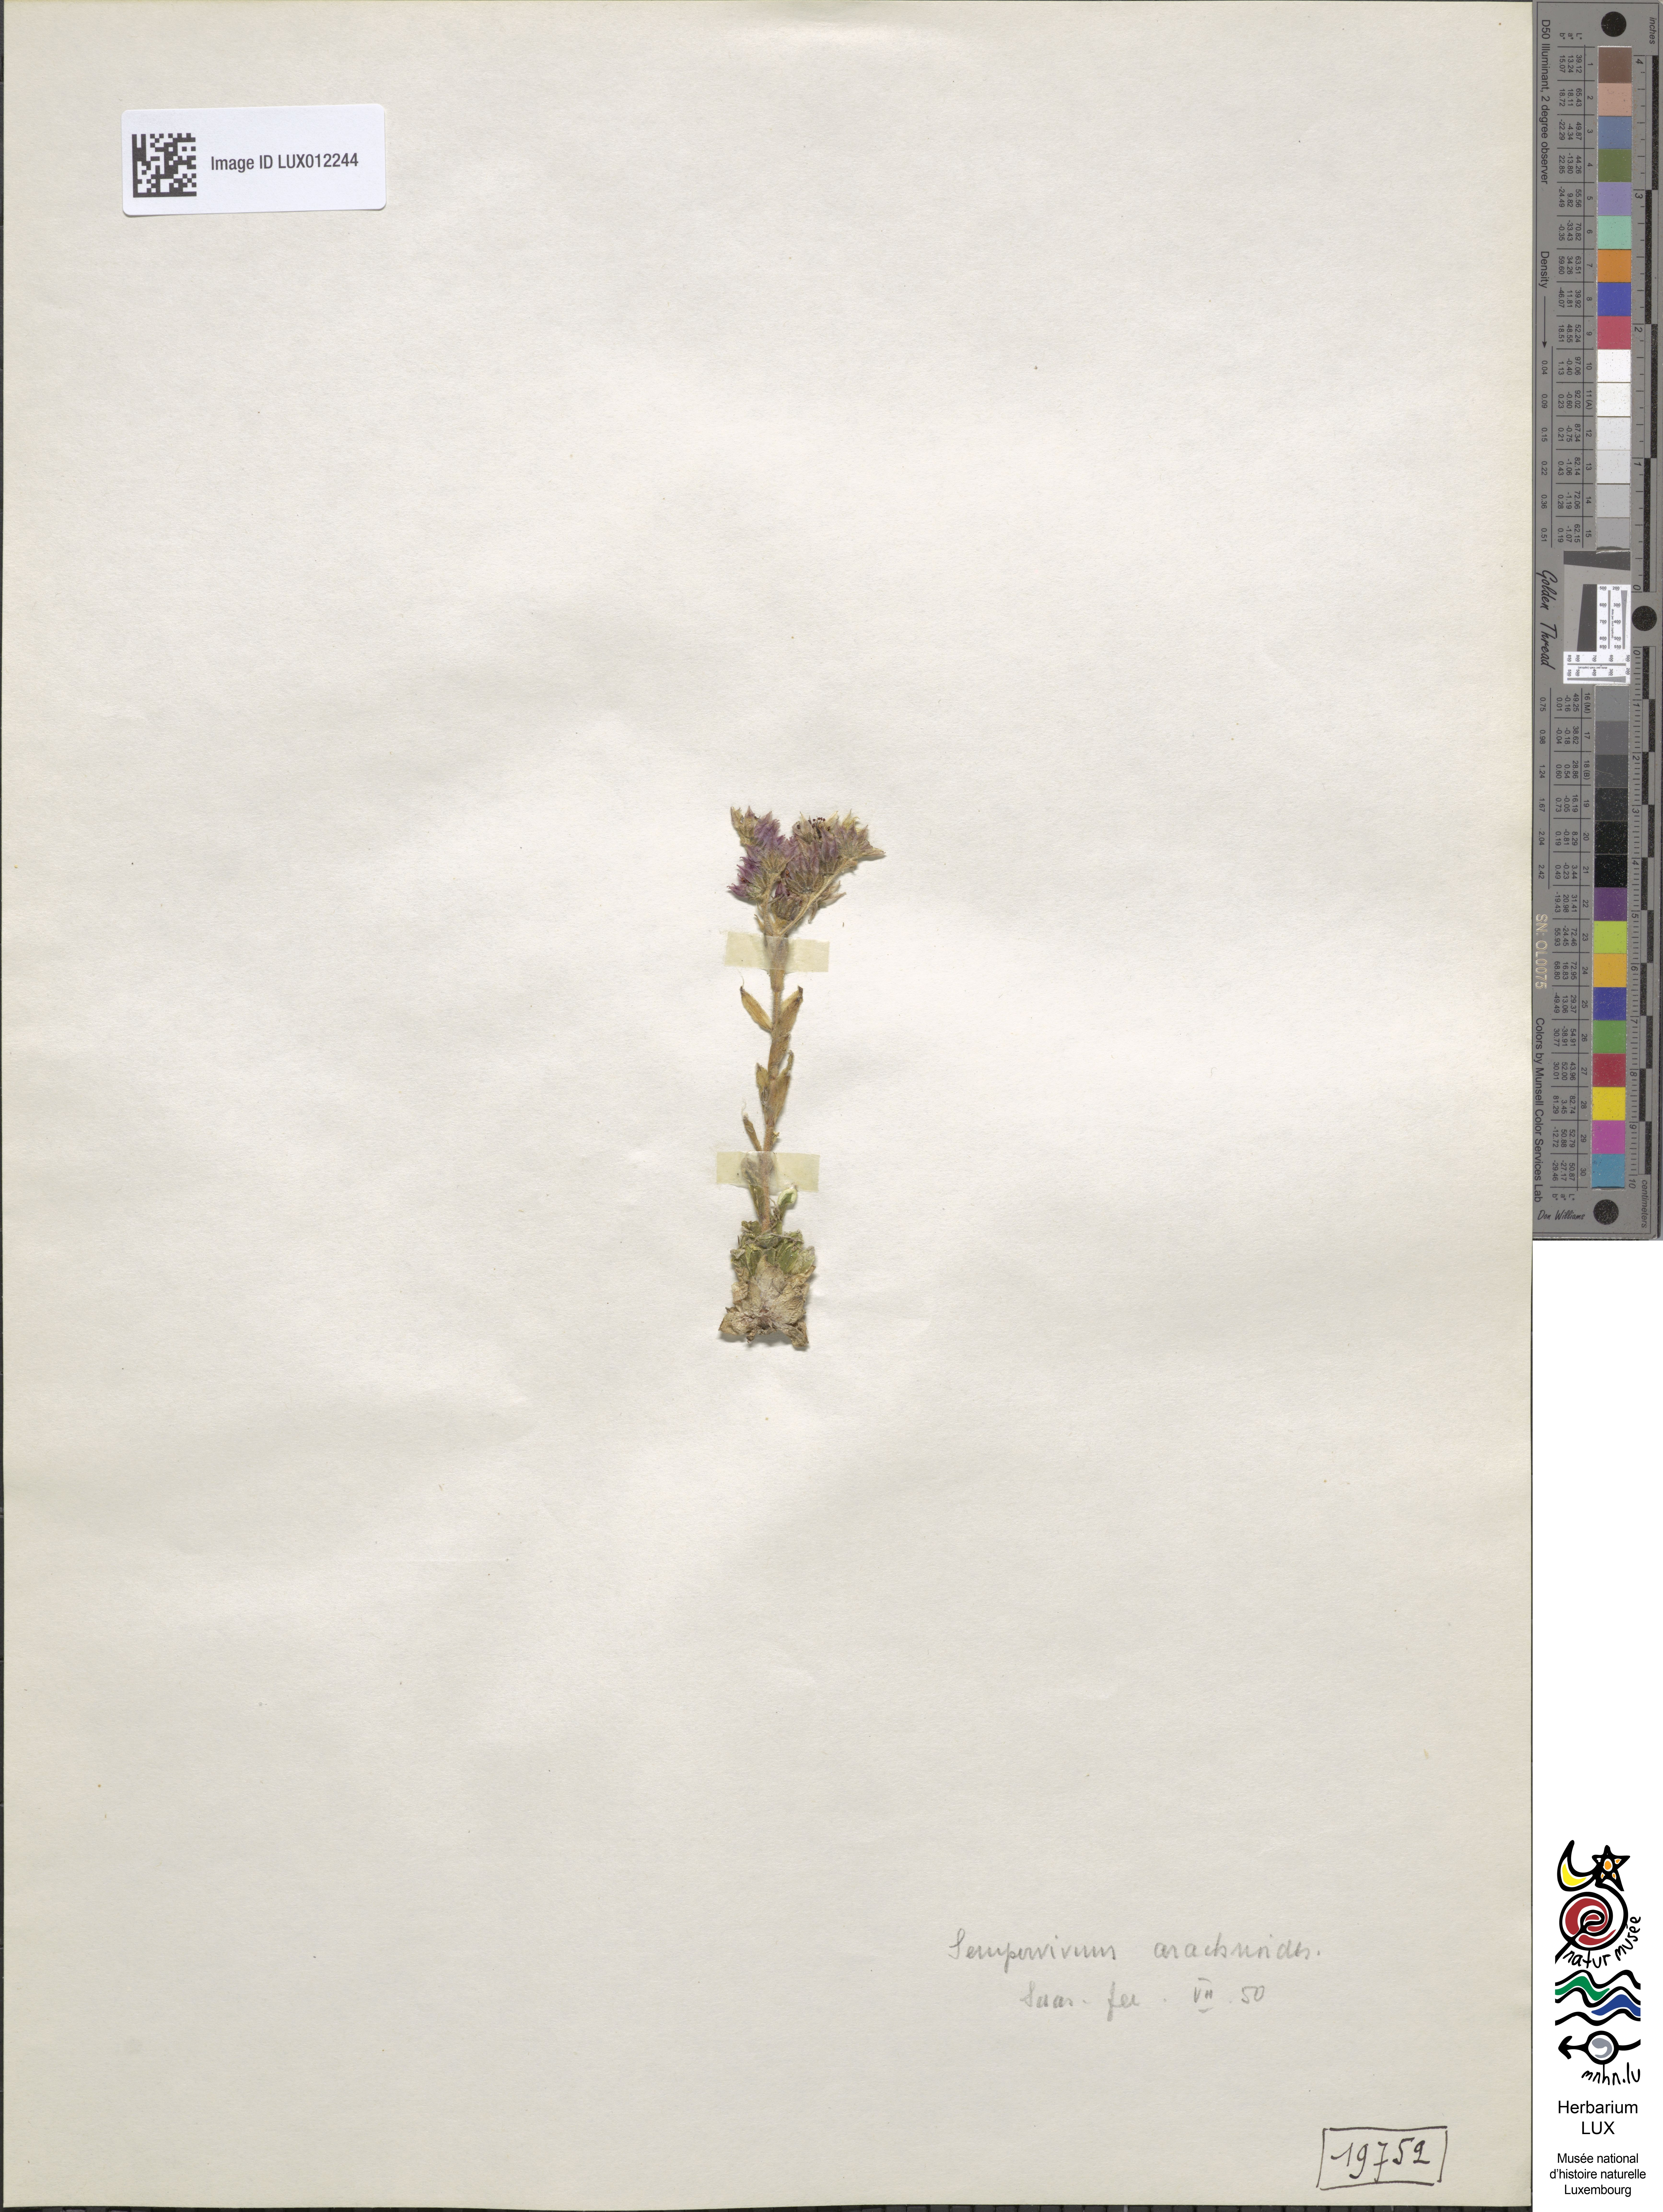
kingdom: Plantae
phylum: Tracheophyta
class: Magnoliopsida
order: Saxifragales
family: Crassulaceae
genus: Sempervivum
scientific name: Sempervivum arachnoideum
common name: Cobweb house-leek
